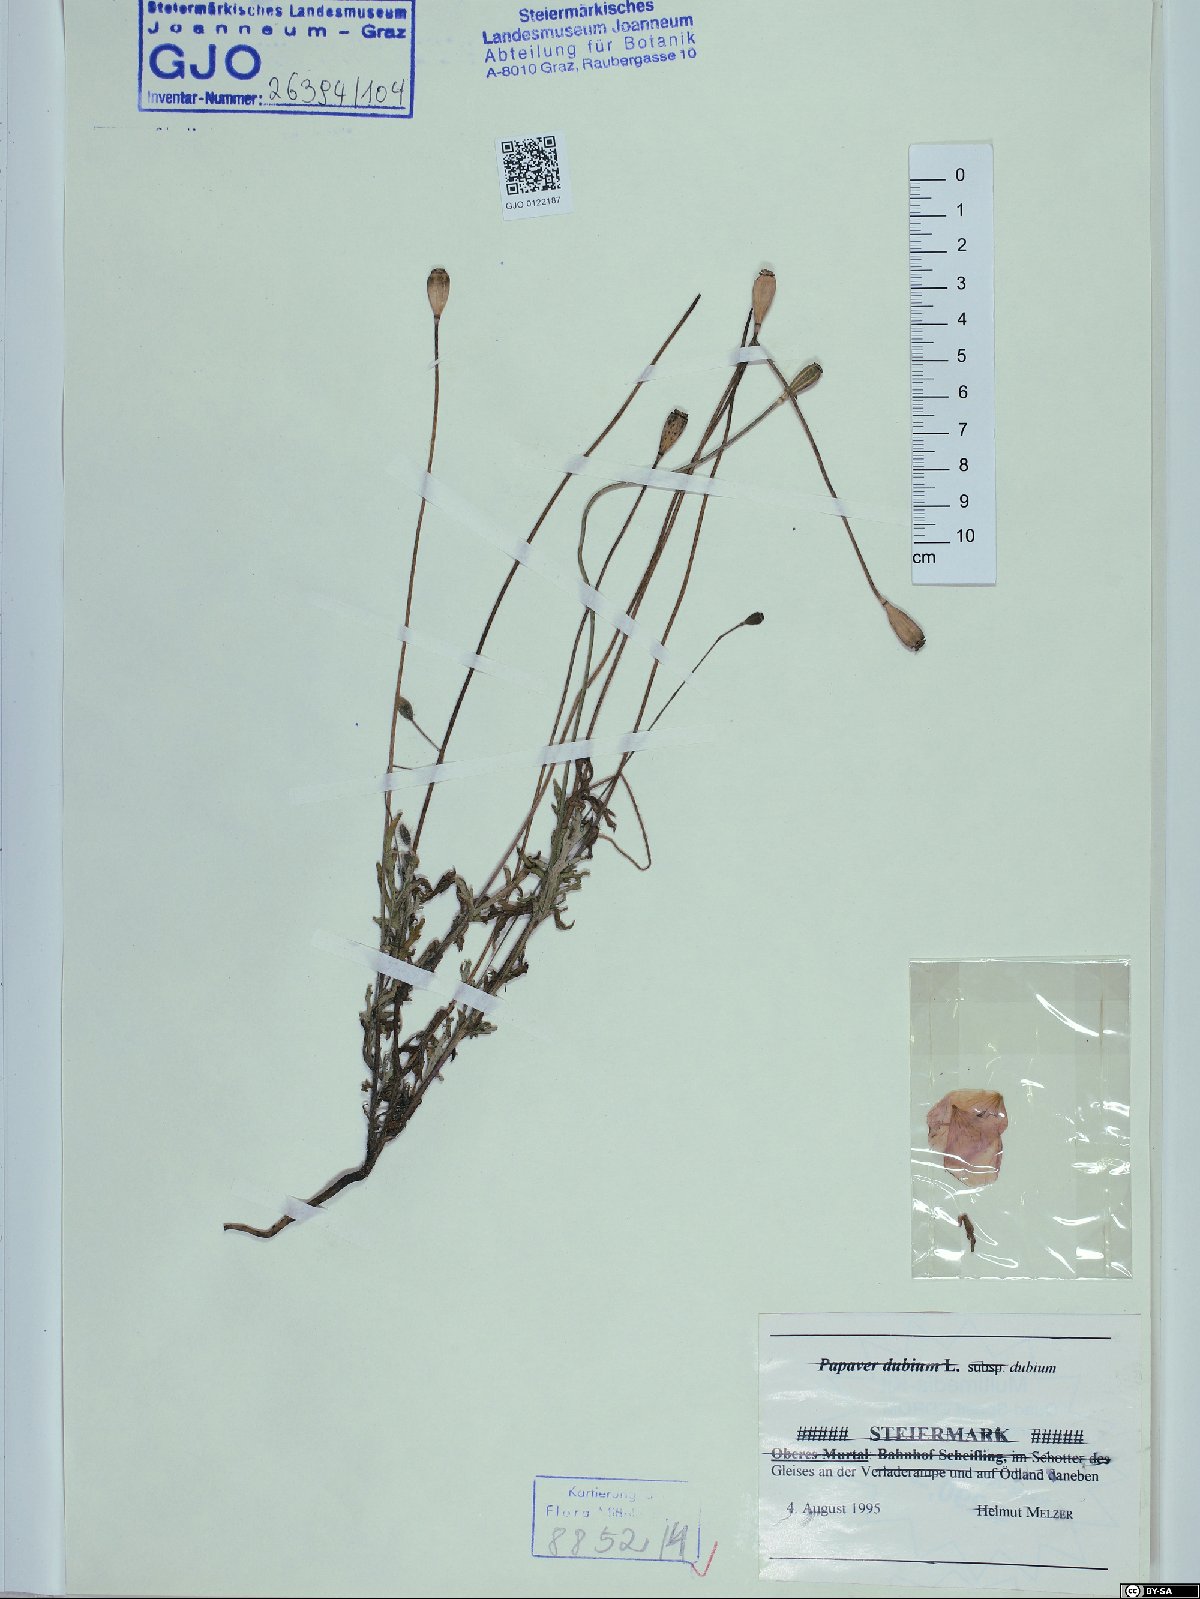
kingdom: Plantae
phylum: Tracheophyta
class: Magnoliopsida
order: Ranunculales
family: Papaveraceae
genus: Papaver
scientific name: Papaver dubium
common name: Long-headed poppy
